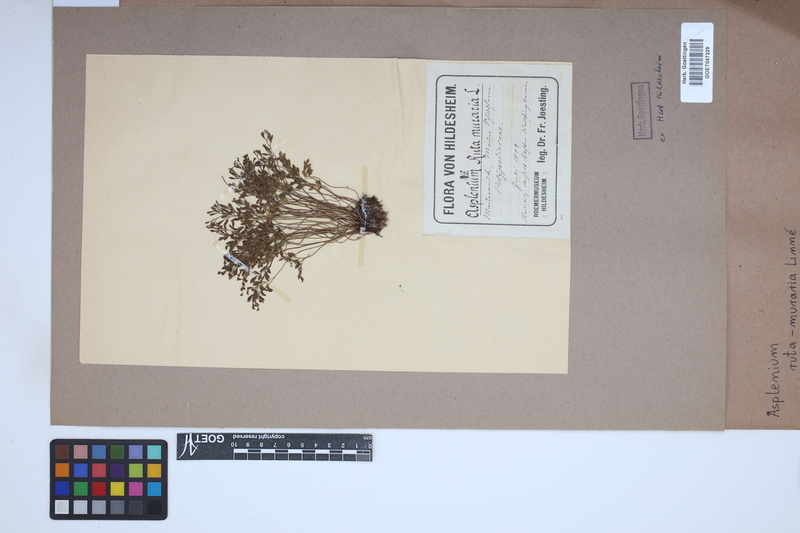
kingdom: Plantae
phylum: Tracheophyta
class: Polypodiopsida
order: Polypodiales
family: Aspleniaceae
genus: Asplenium
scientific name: Asplenium ruta-muraria
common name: Wall-rue
